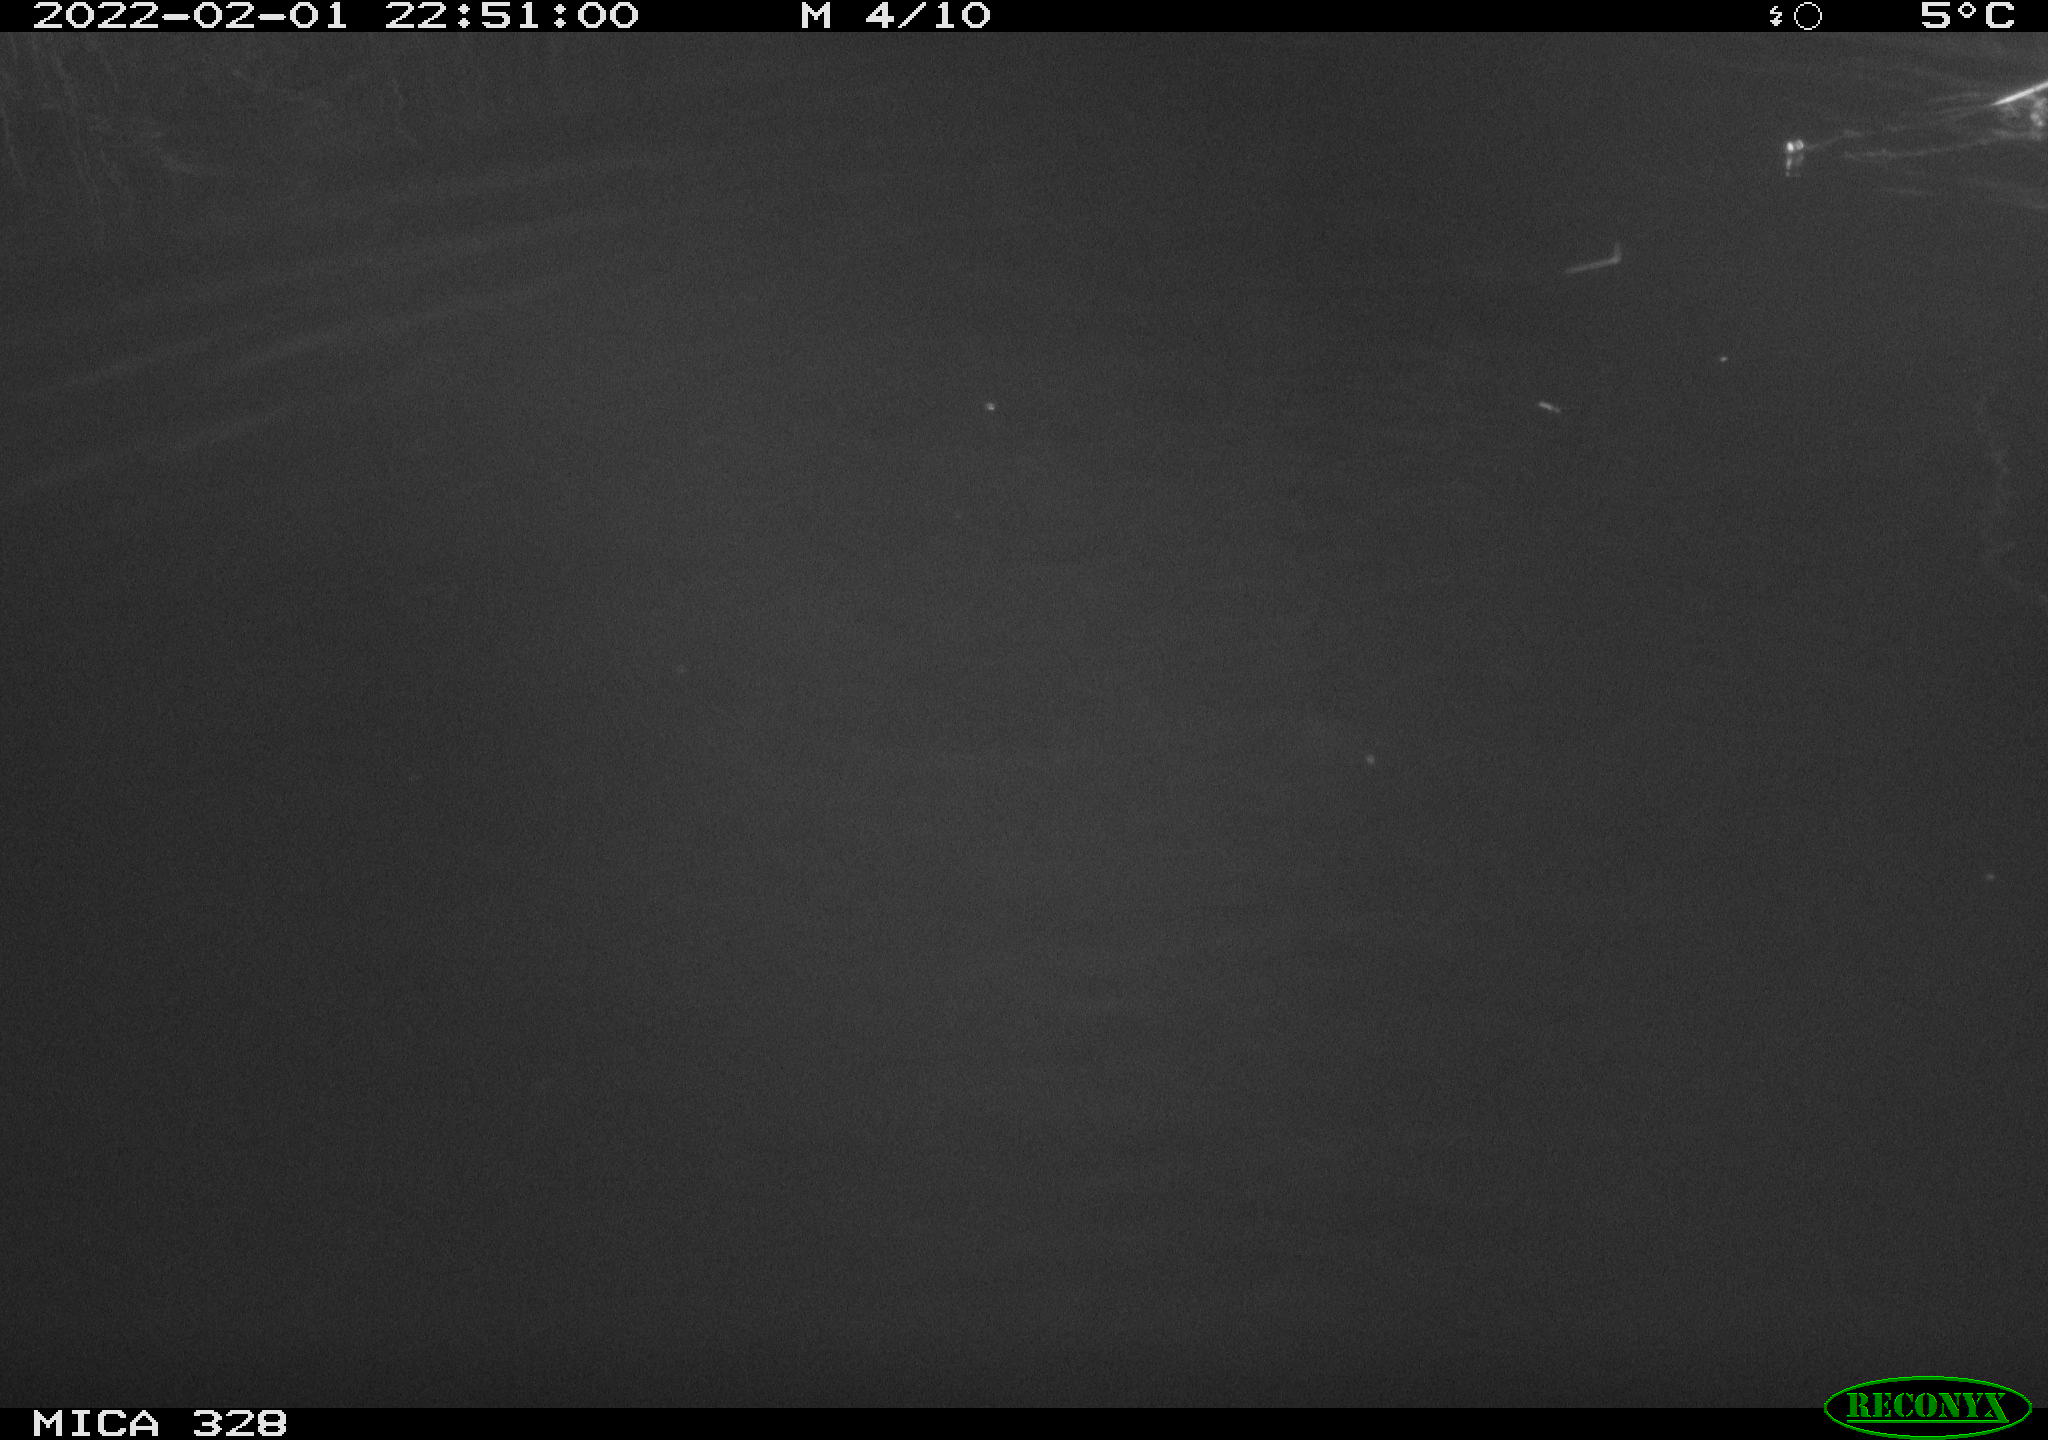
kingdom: Animalia
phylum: Chordata
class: Mammalia
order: Rodentia
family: Cricetidae
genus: Ondatra
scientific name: Ondatra zibethicus
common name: Muskrat
